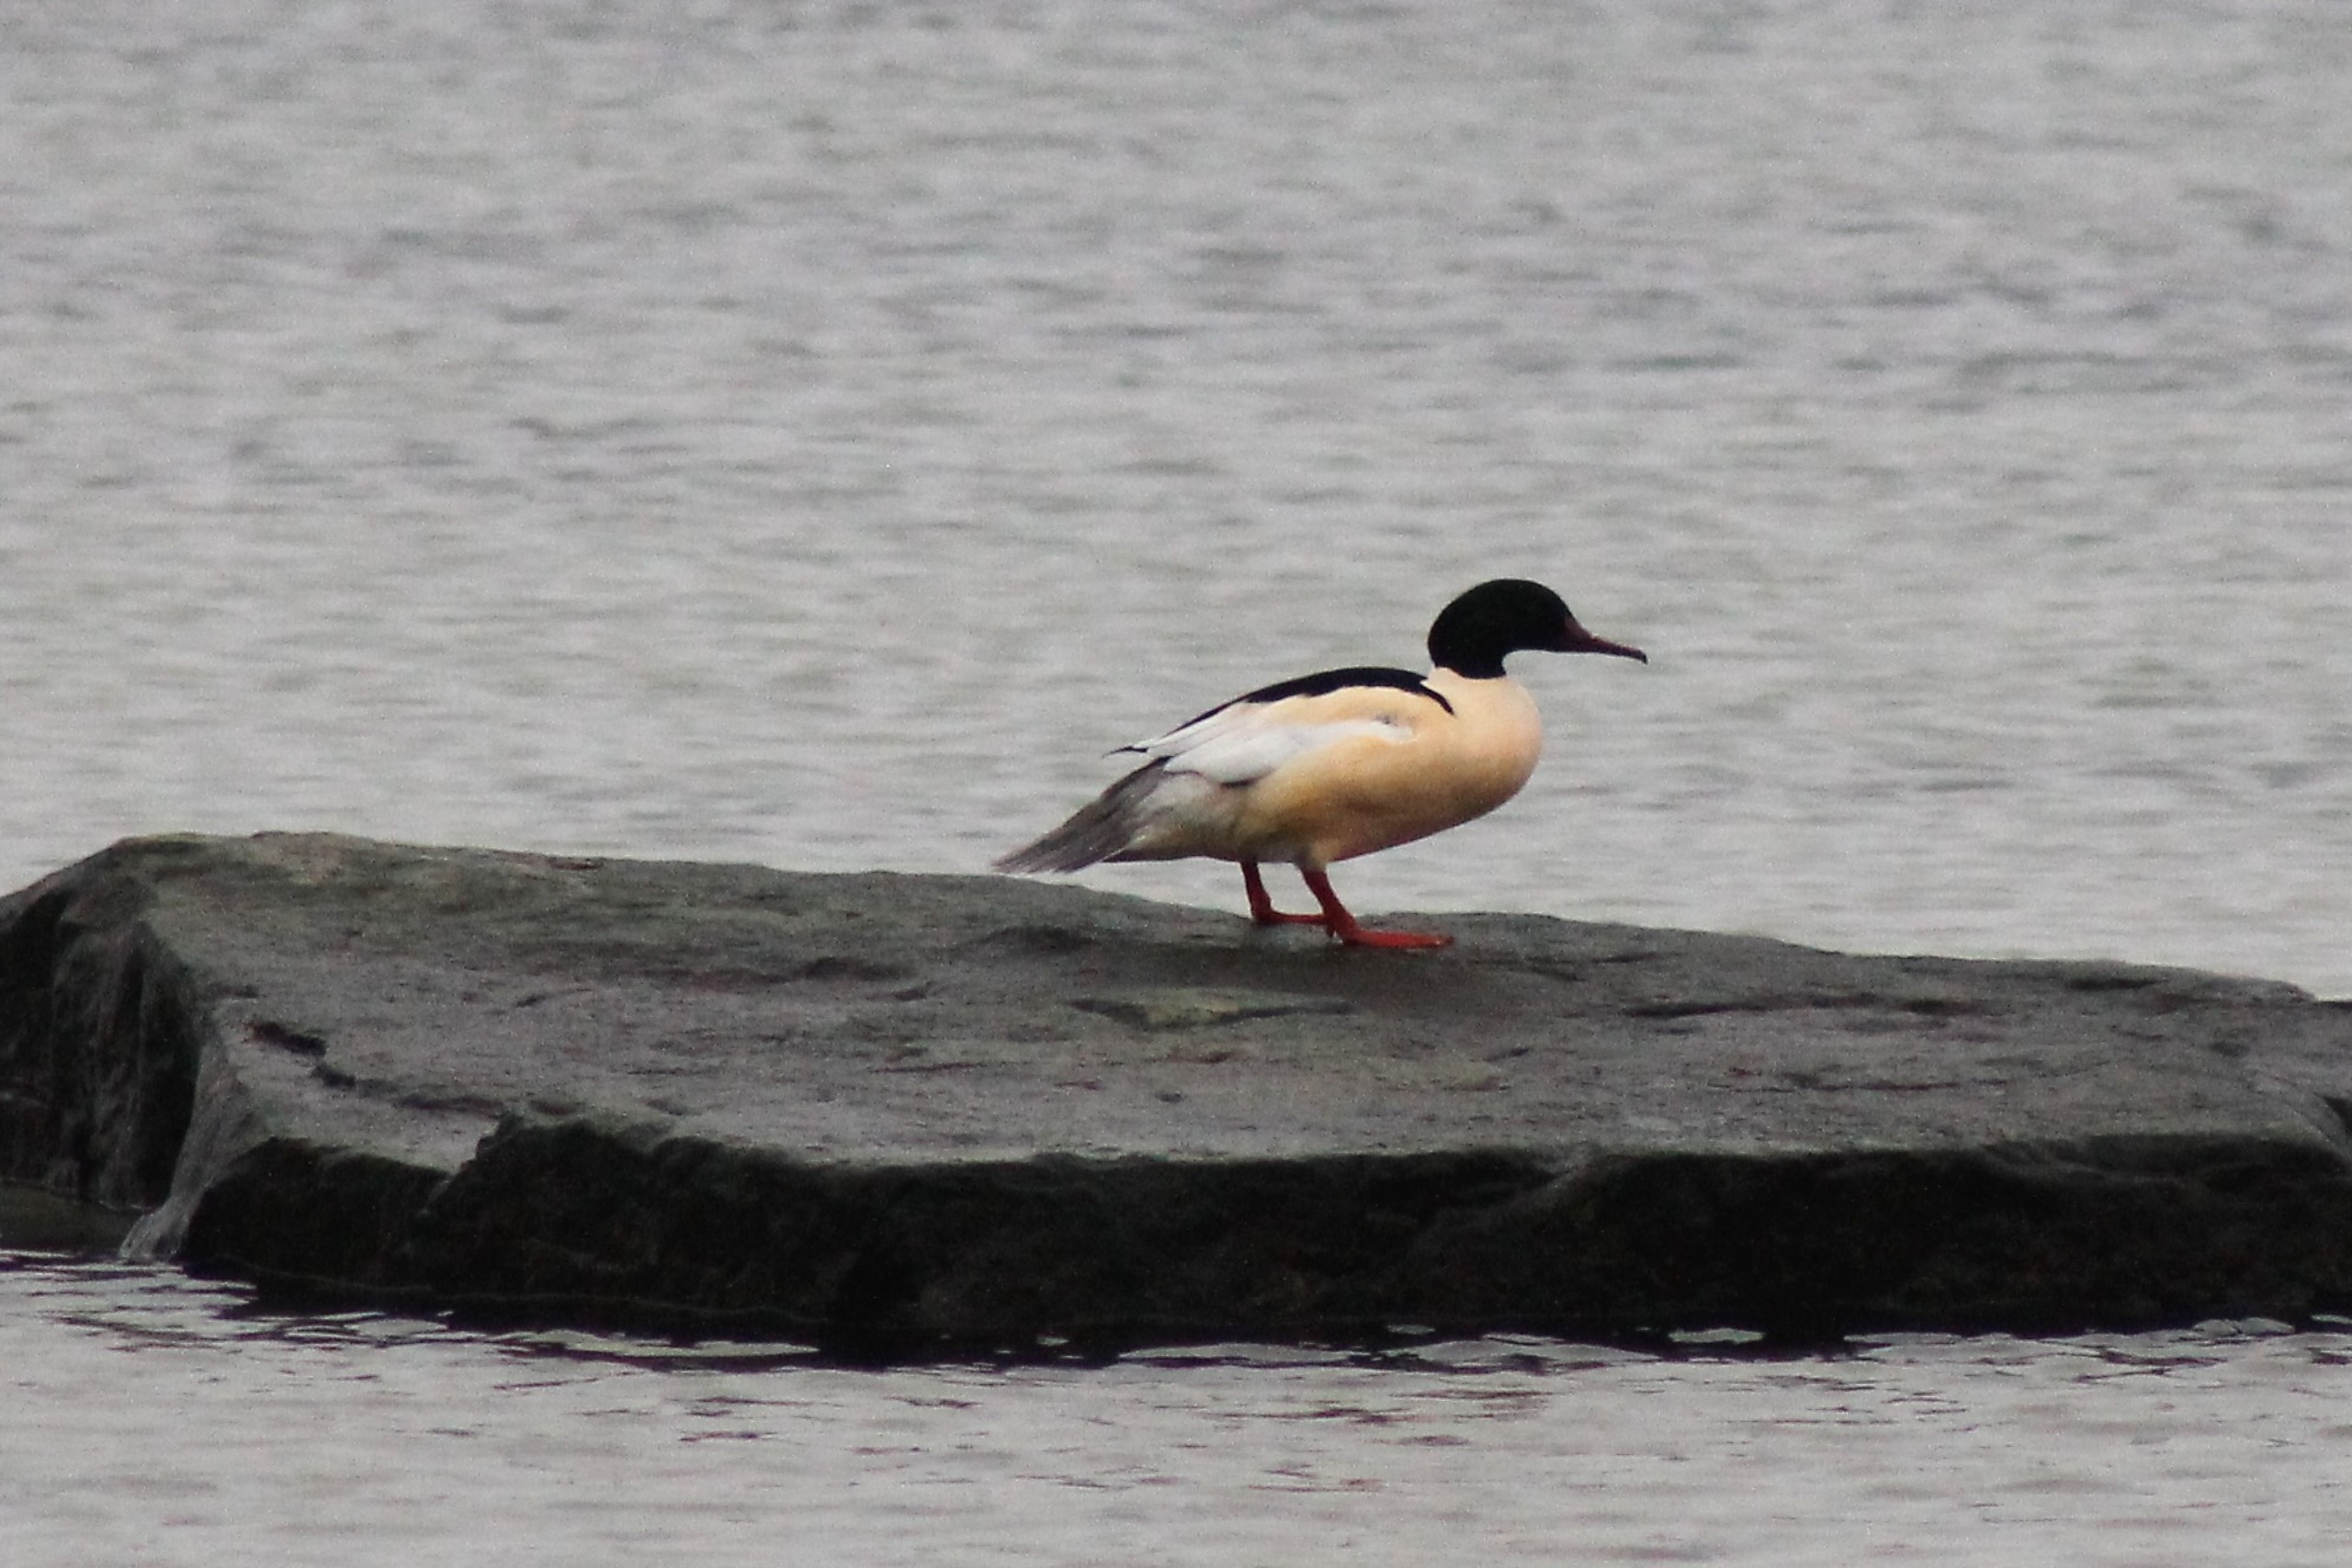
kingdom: Animalia
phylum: Chordata
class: Aves
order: Anseriformes
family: Anatidae
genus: Mergus
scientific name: Mergus merganser
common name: Stor skallesluger
